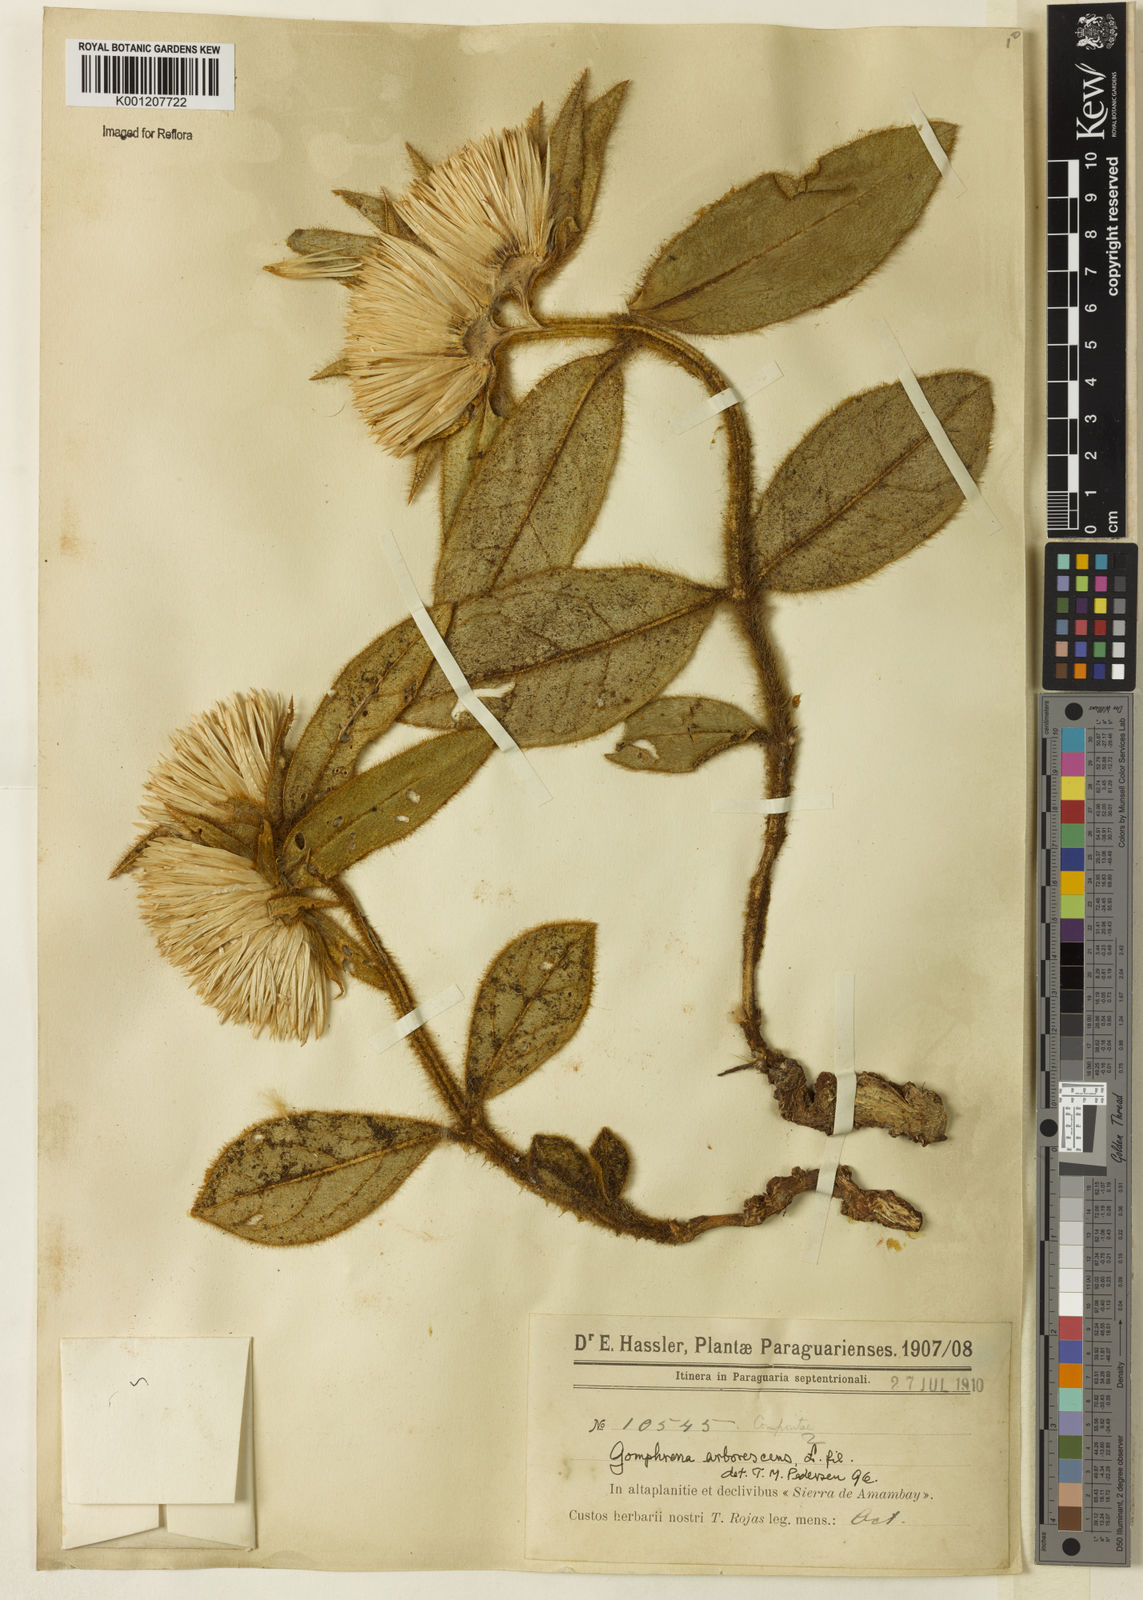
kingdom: Plantae
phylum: Tracheophyta
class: Magnoliopsida
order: Caryophyllales
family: Amaranthaceae
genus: Gomphrena
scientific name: Gomphrena arborescens
